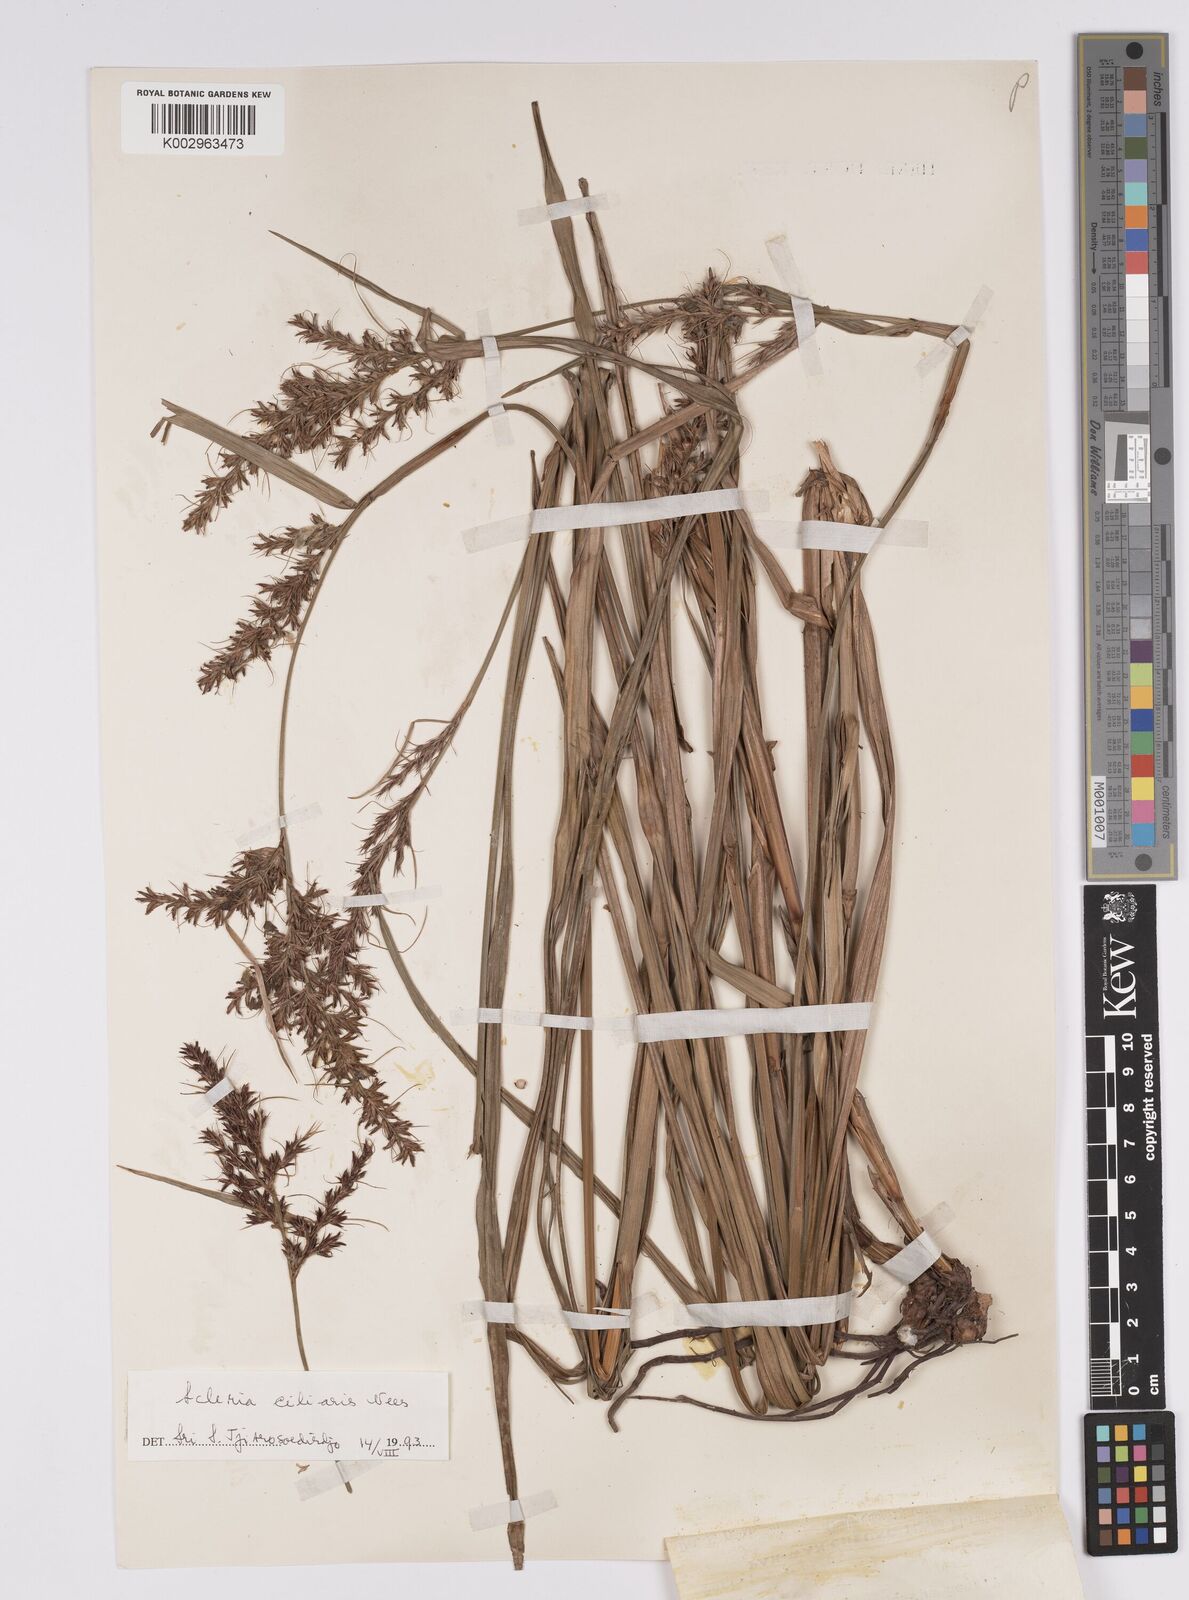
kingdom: Plantae
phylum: Tracheophyta
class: Liliopsida
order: Poales
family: Cyperaceae
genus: Scleria
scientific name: Scleria ciliaris
